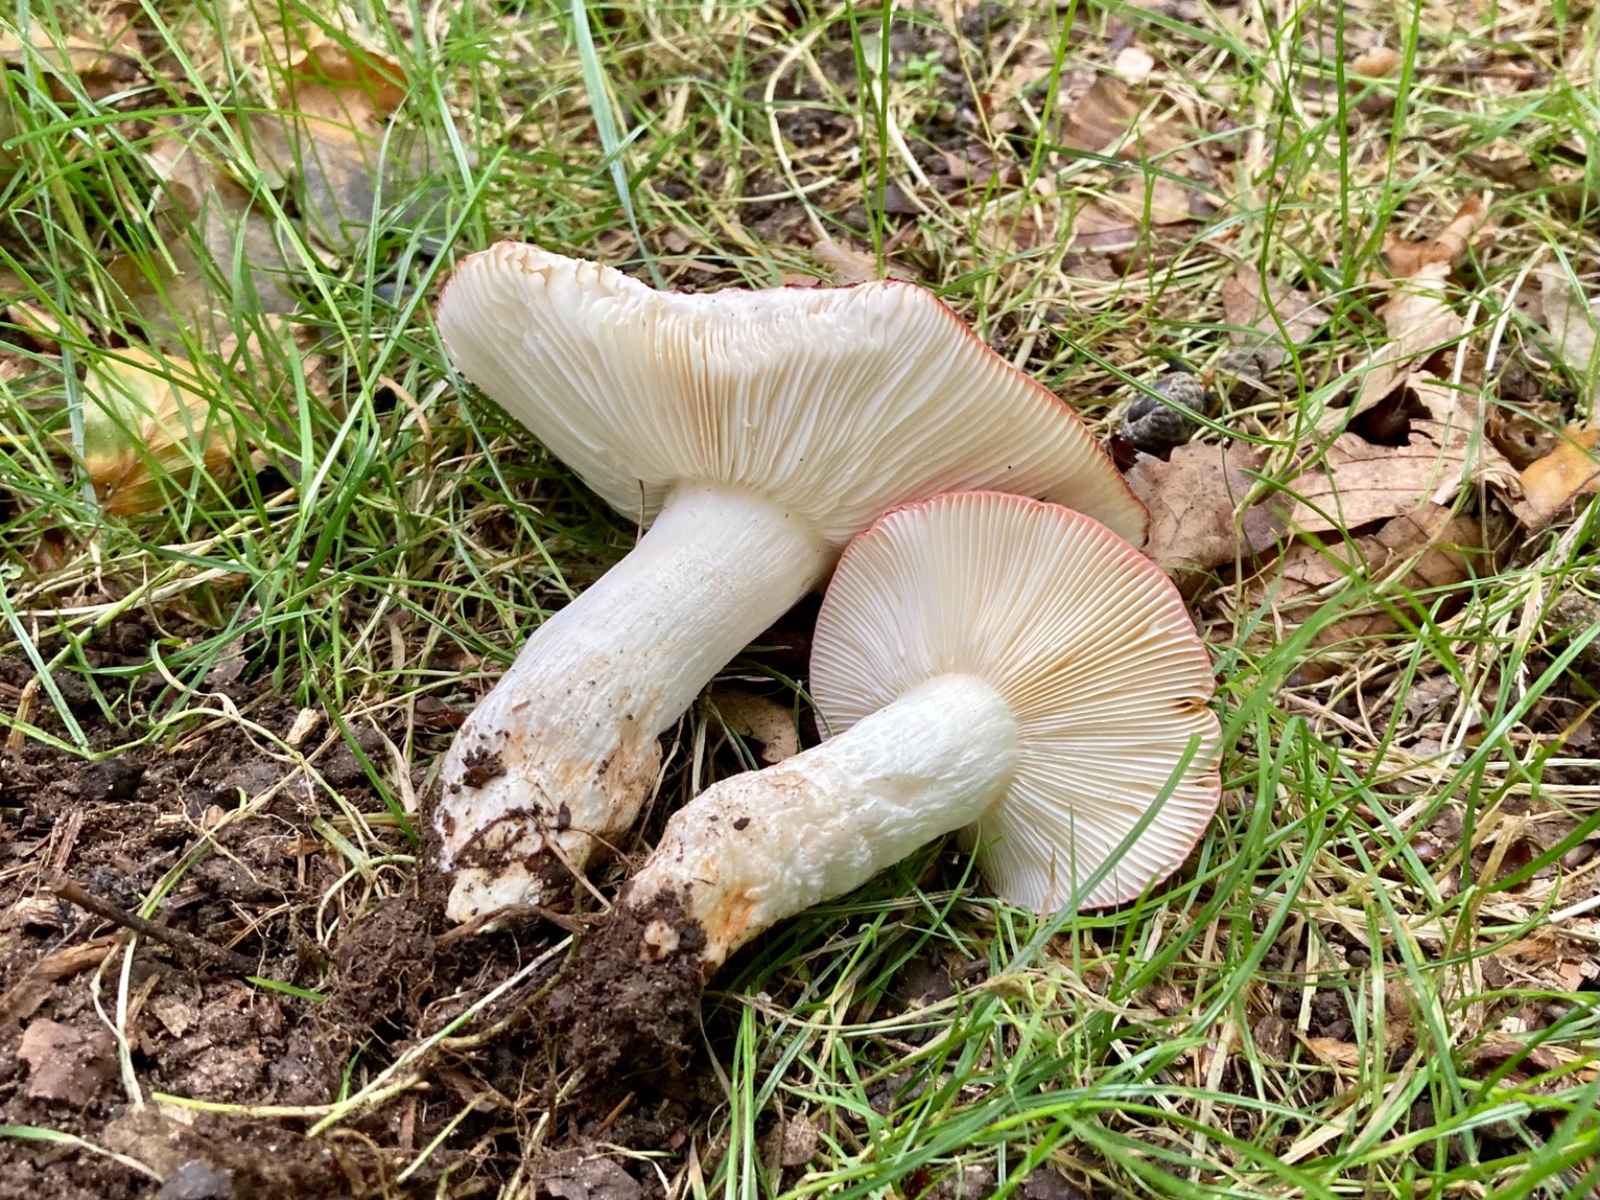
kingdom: Fungi
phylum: Basidiomycota
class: Agaricomycetes
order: Russulales
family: Russulaceae
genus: Russula
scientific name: Russula atropurpurea
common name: purpurbroget skørhat
